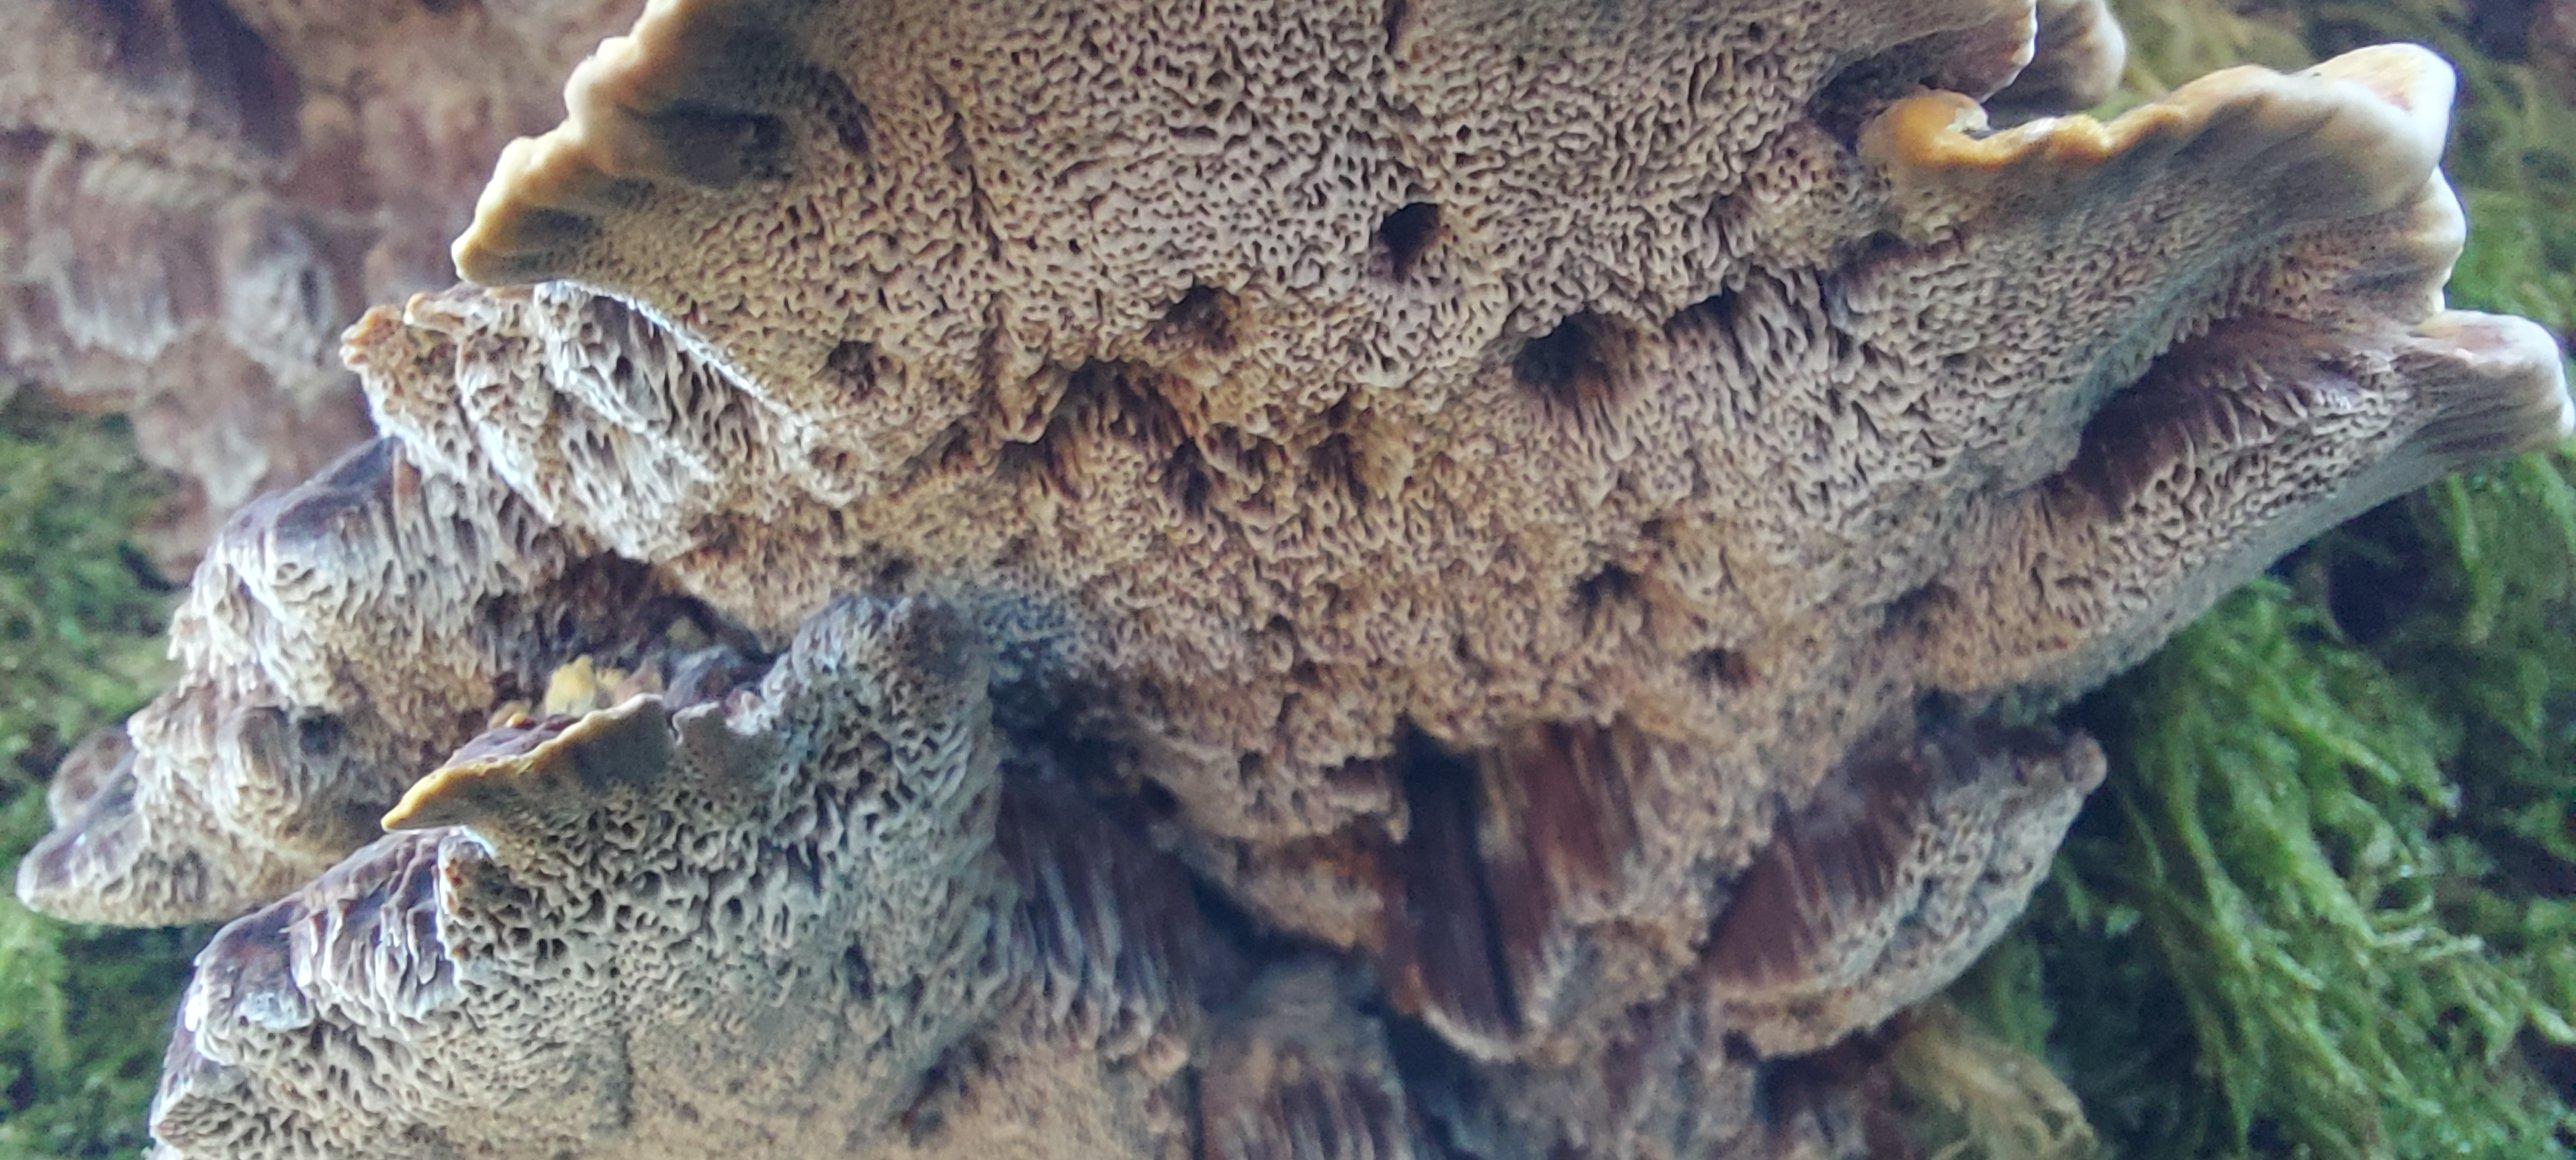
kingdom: Fungi
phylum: Basidiomycota
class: Agaricomycetes
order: Hymenochaetales
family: Hymenochaetaceae
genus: Xanthoporia
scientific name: Xanthoporia radiata
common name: elle-spejlporesvamp
